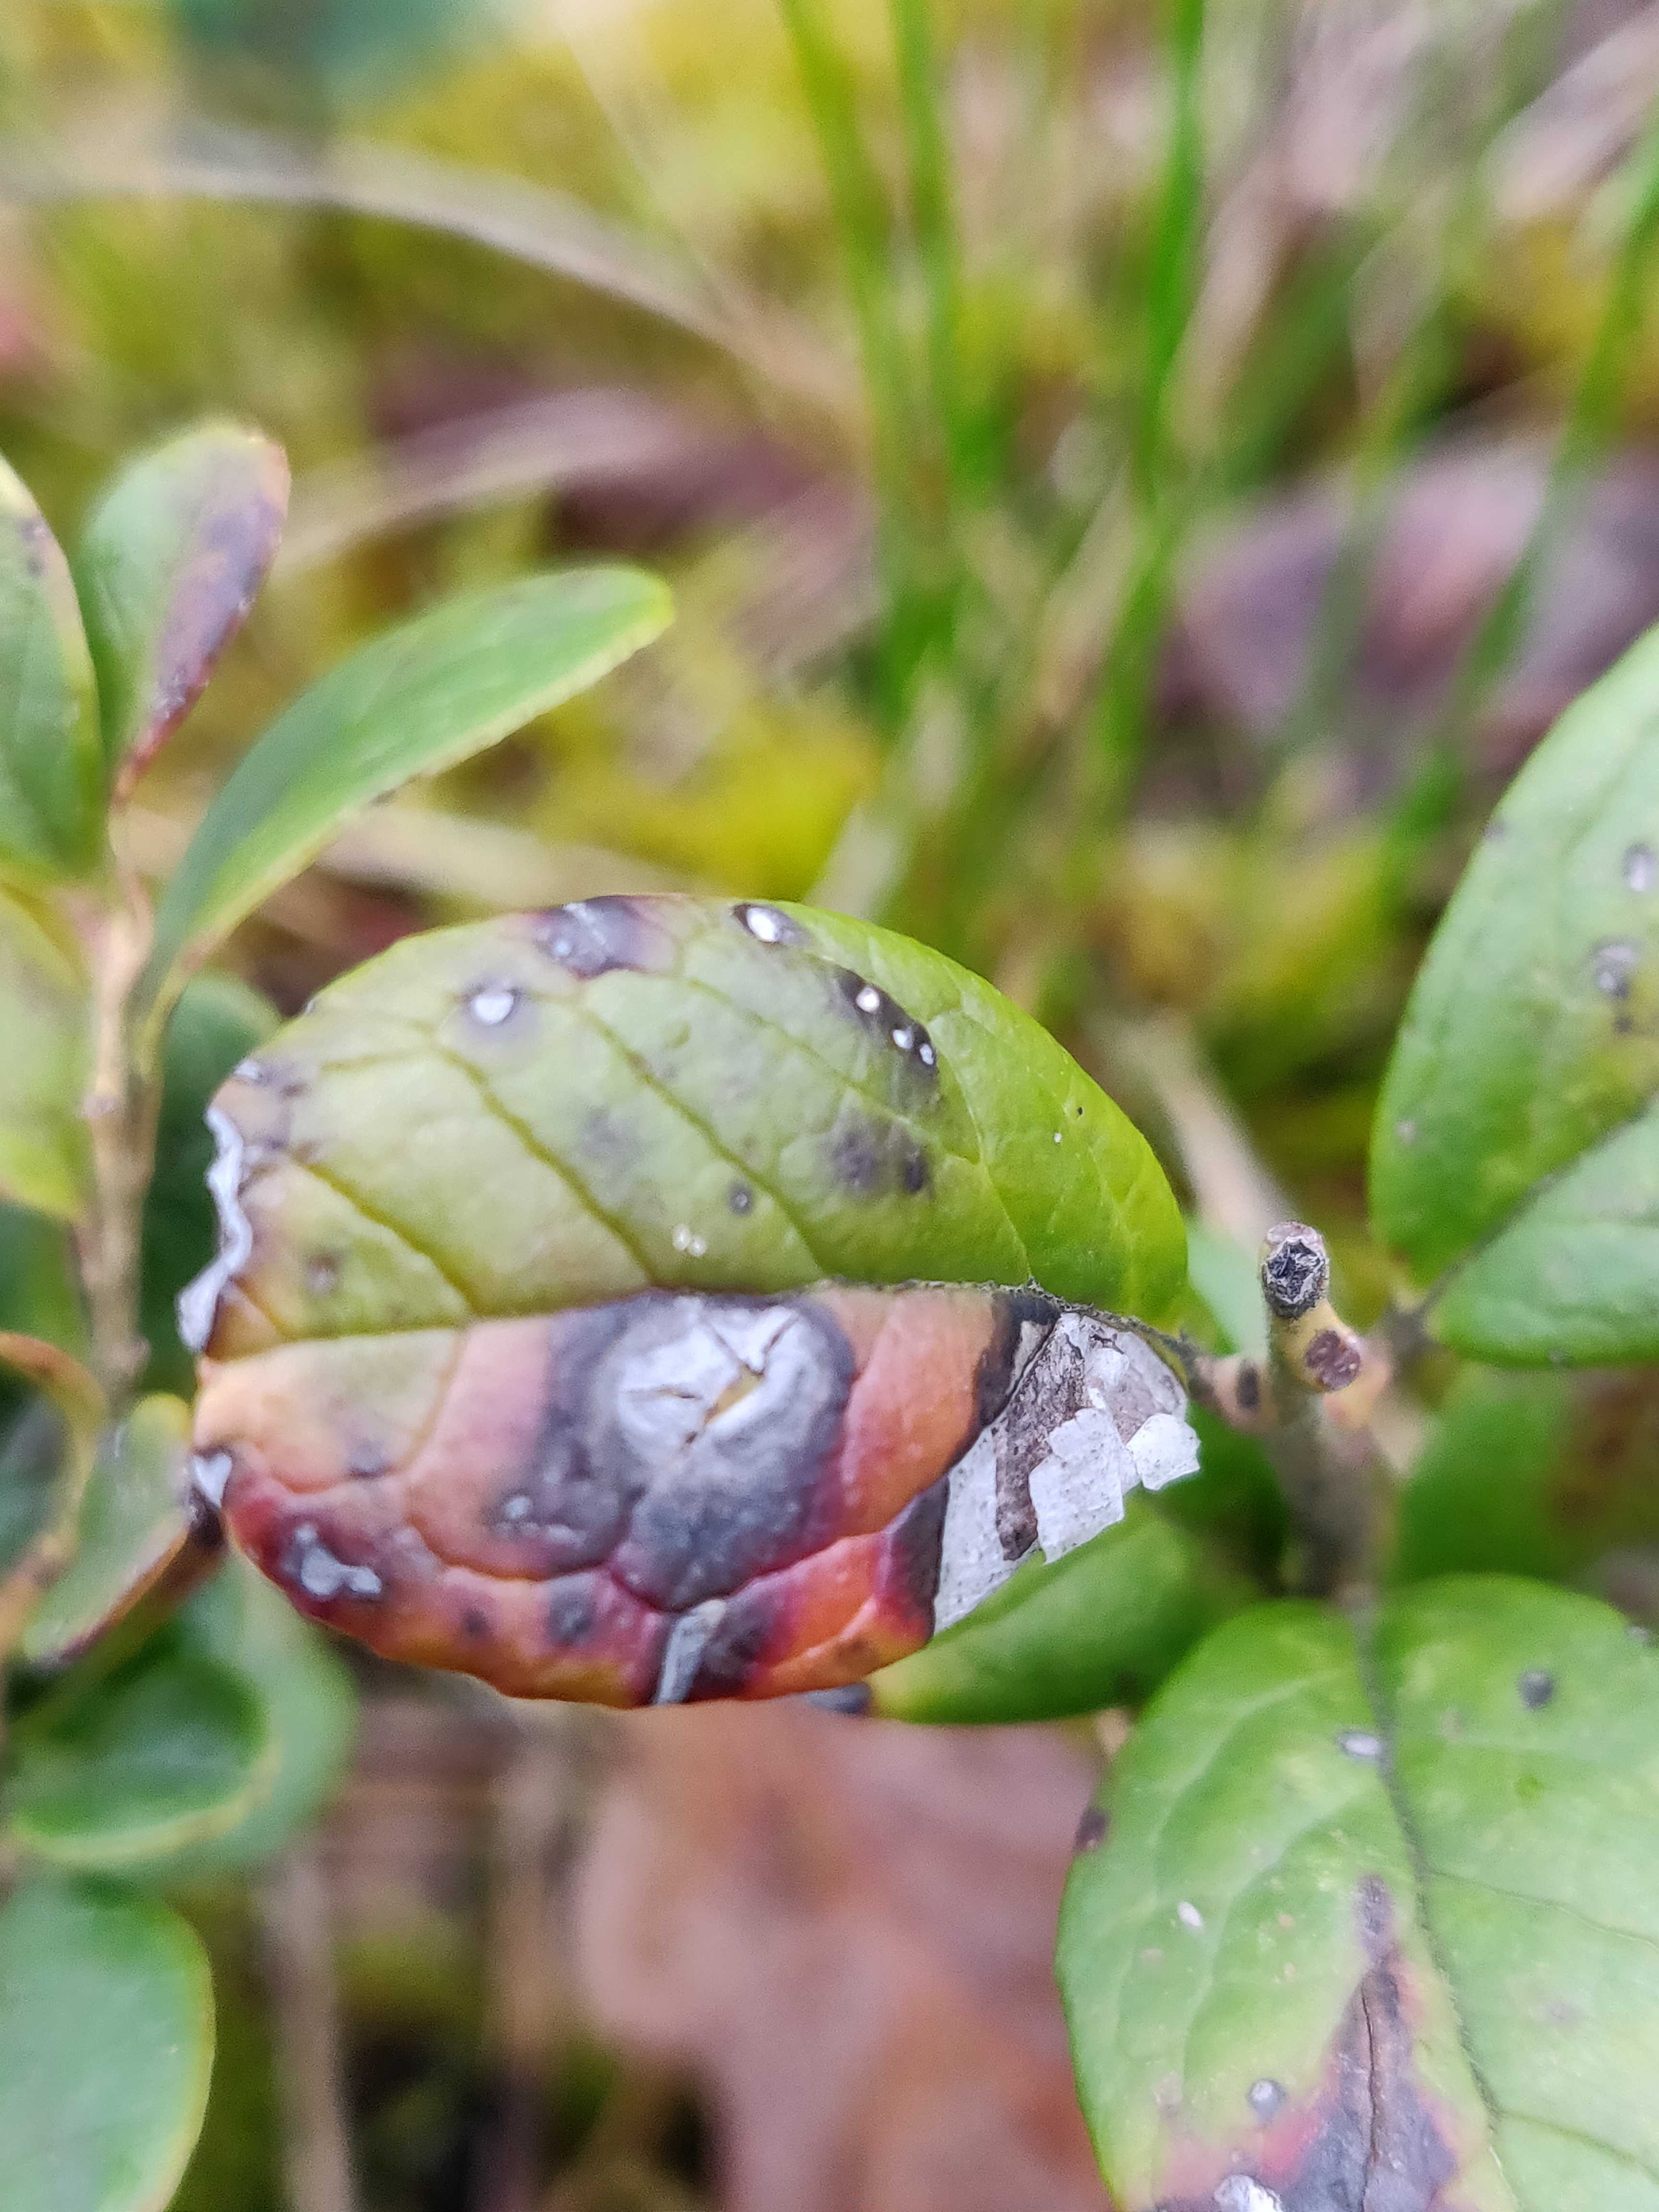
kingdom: Fungi
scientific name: Fungi
